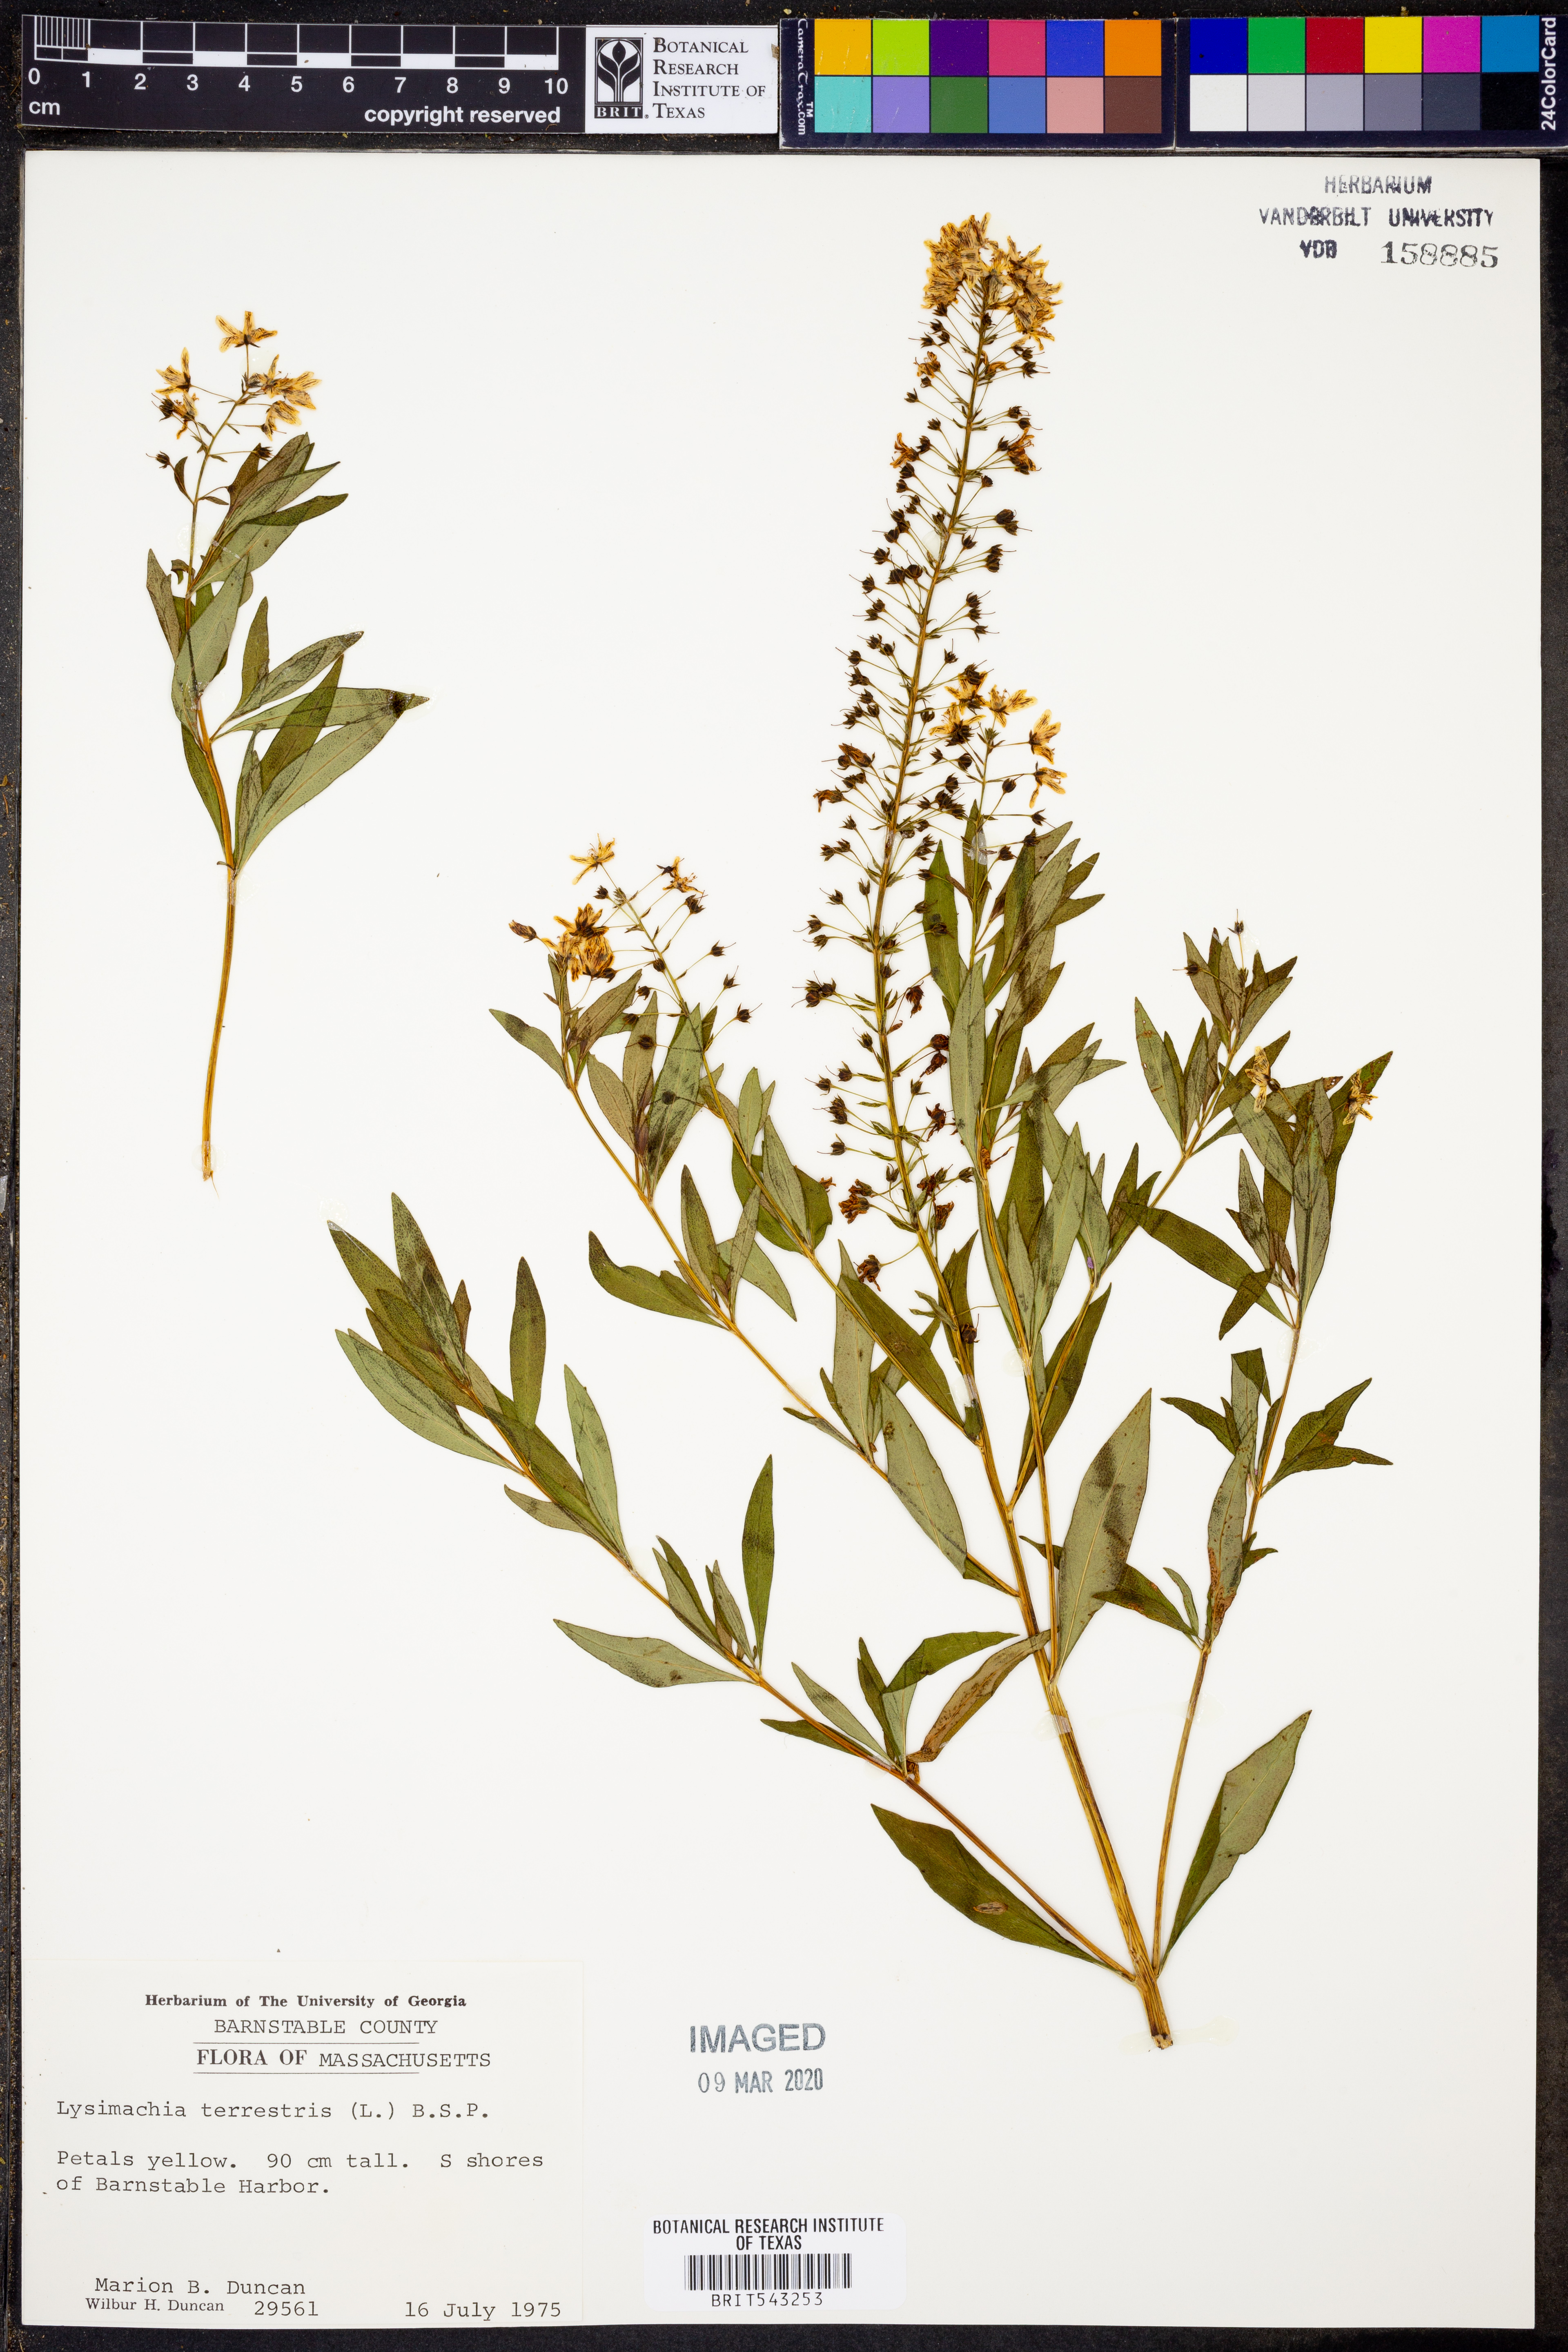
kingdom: Plantae
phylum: Tracheophyta
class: Magnoliopsida
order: Ericales
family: Primulaceae
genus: Lysimachia
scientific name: Lysimachia terrestris
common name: Lake loosestrife
